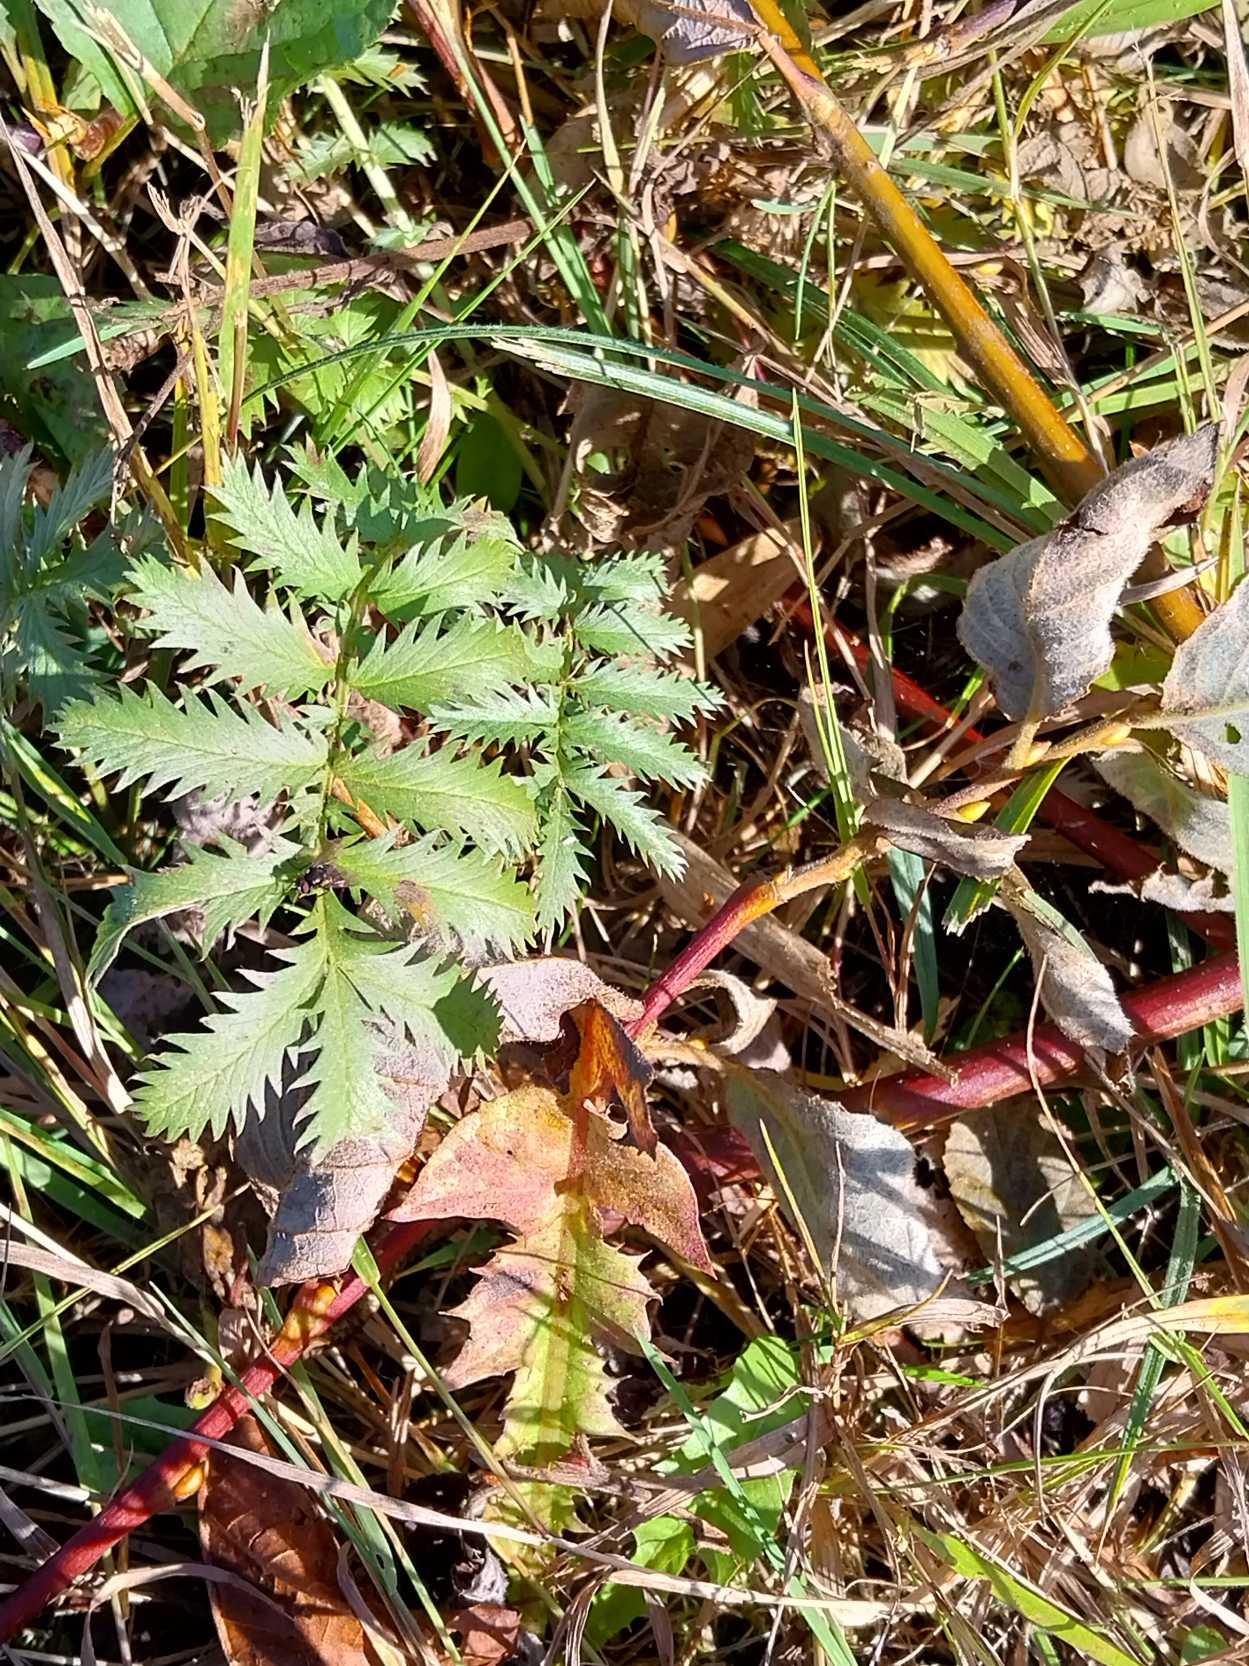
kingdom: Plantae
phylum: Tracheophyta
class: Magnoliopsida
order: Rosales
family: Rosaceae
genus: Argentina
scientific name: Argentina anserina
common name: Gåsepotentil
